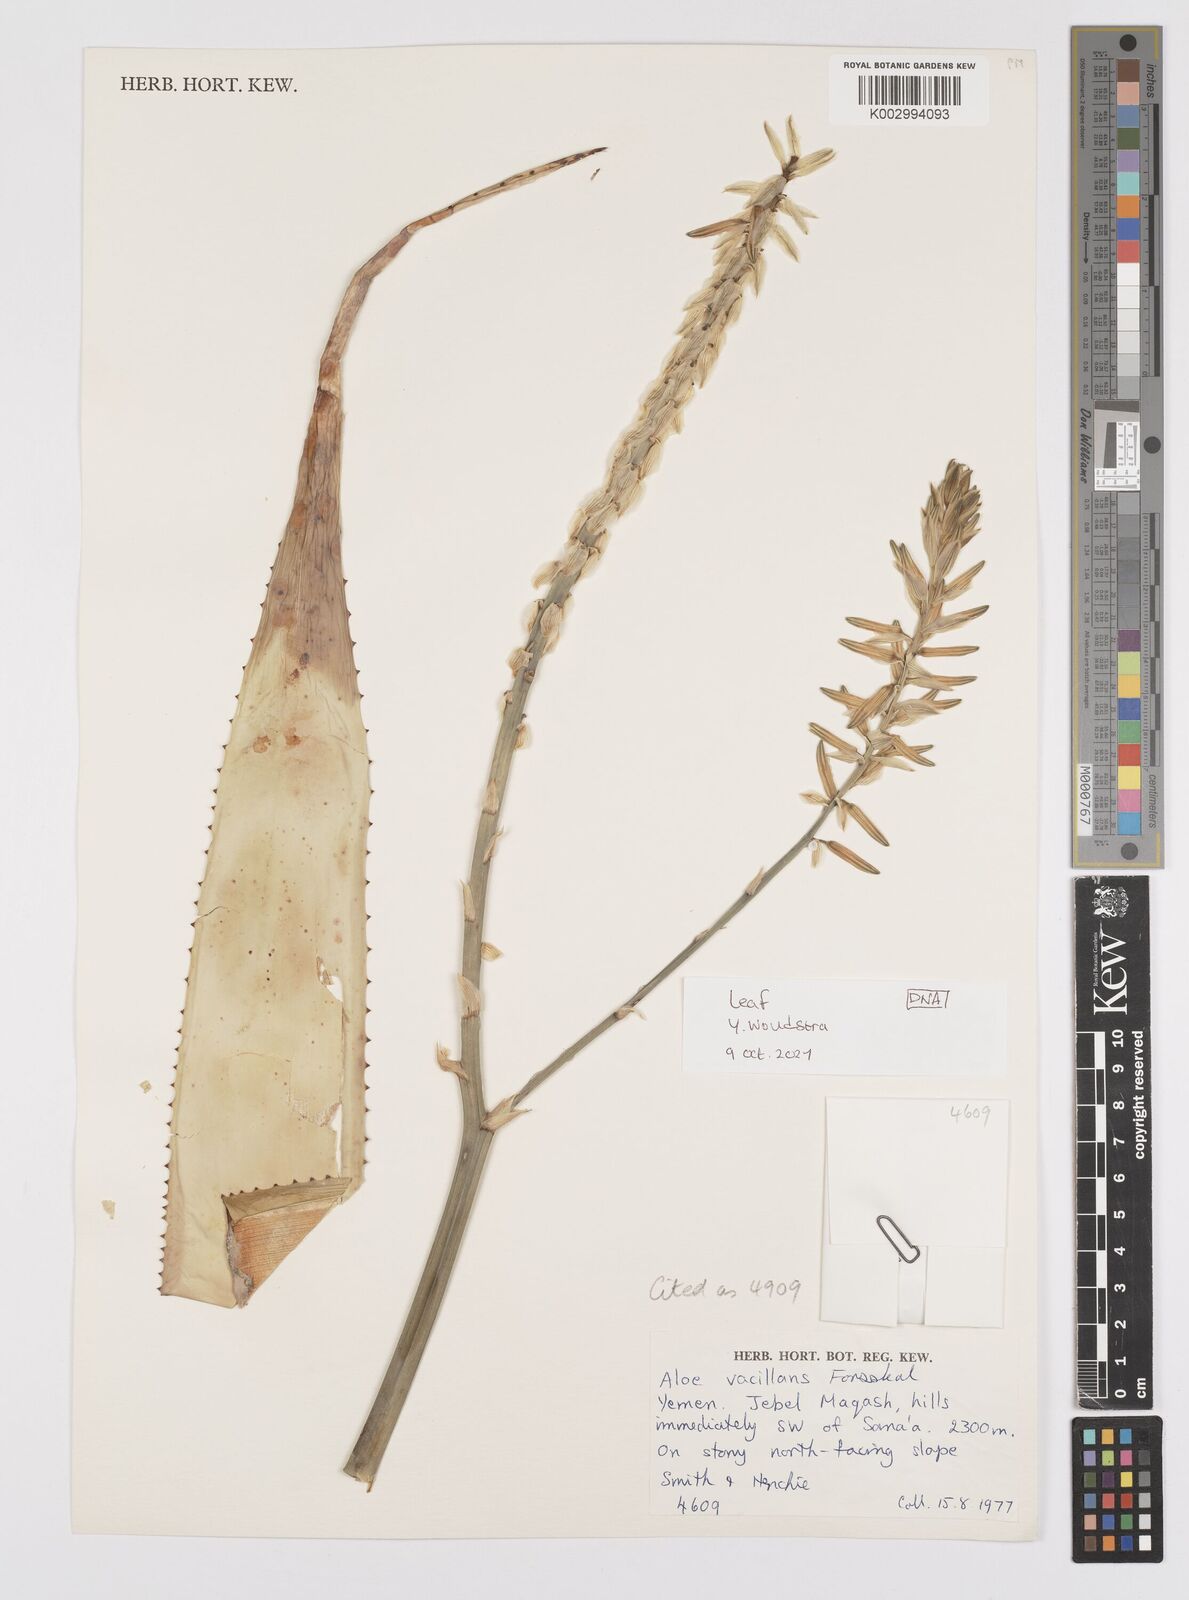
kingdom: Plantae
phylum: Tracheophyta
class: Liliopsida
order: Asparagales
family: Asphodelaceae
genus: Aloe
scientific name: Aloe vacillans
